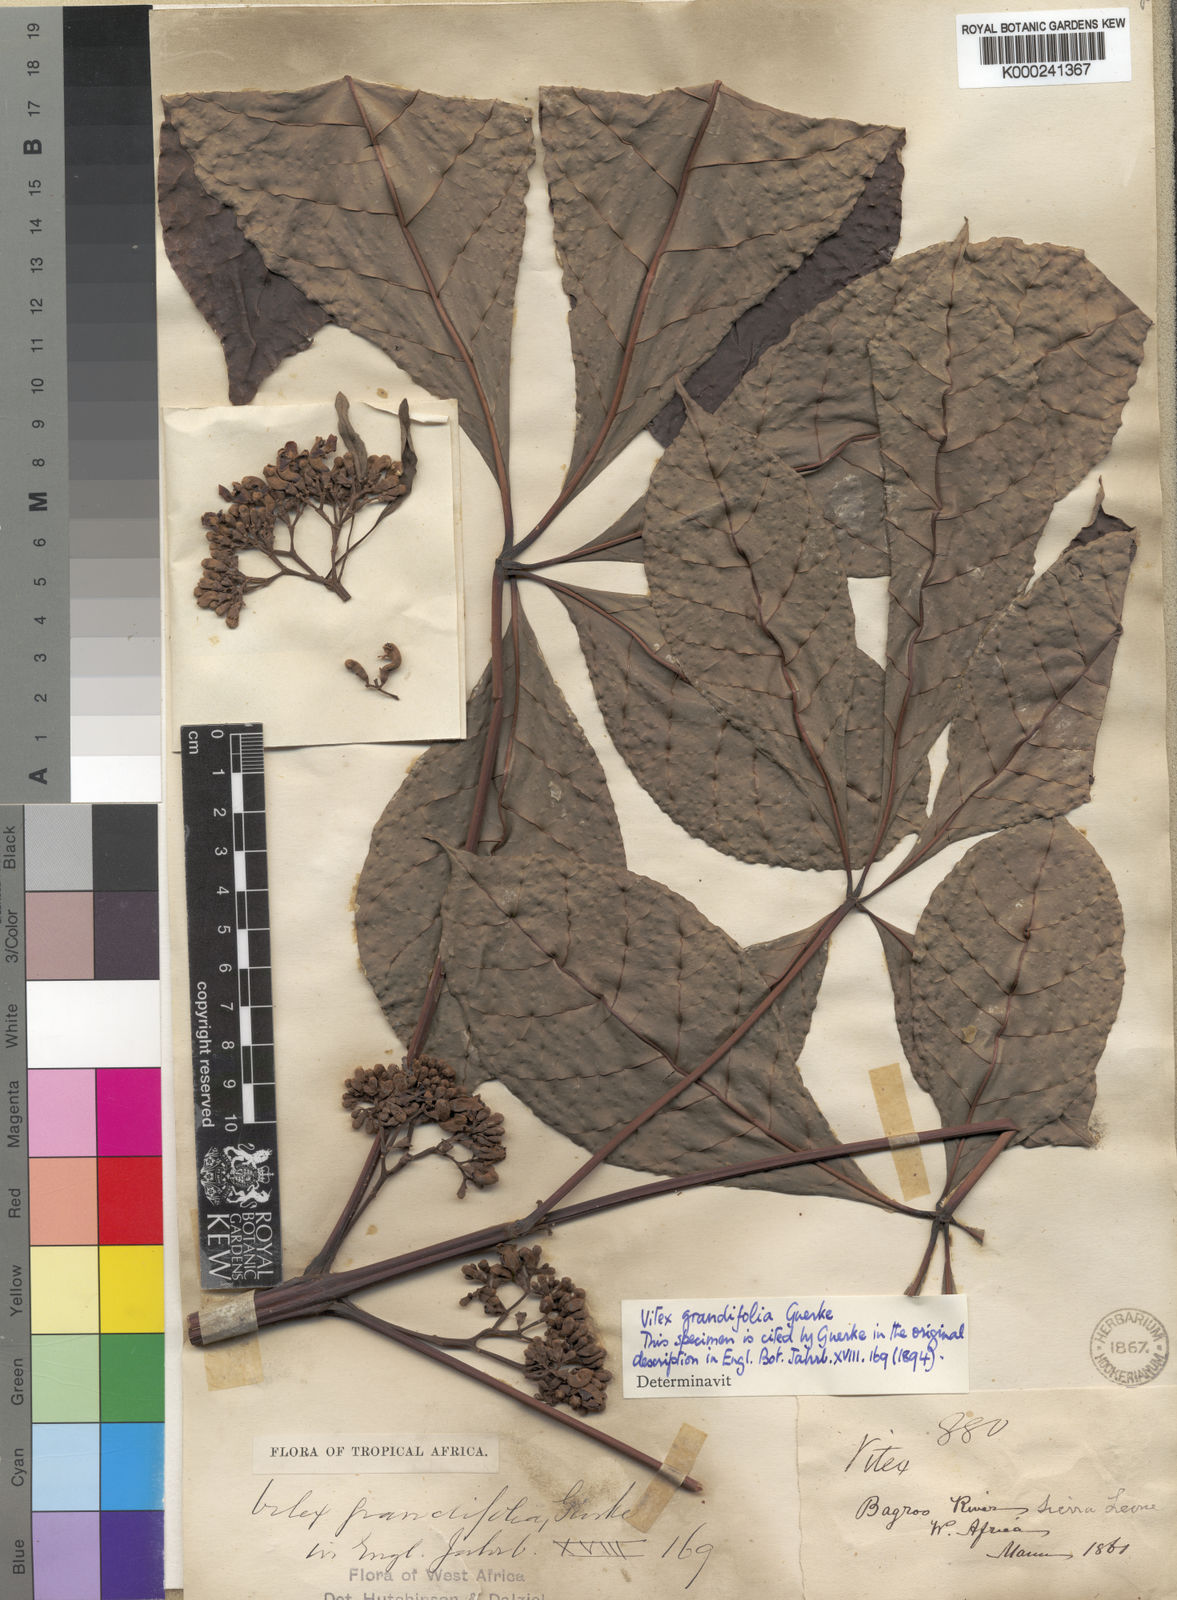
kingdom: Plantae
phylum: Tracheophyta
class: Magnoliopsida
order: Lamiales
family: Lamiaceae
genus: Vitex
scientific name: Vitex
